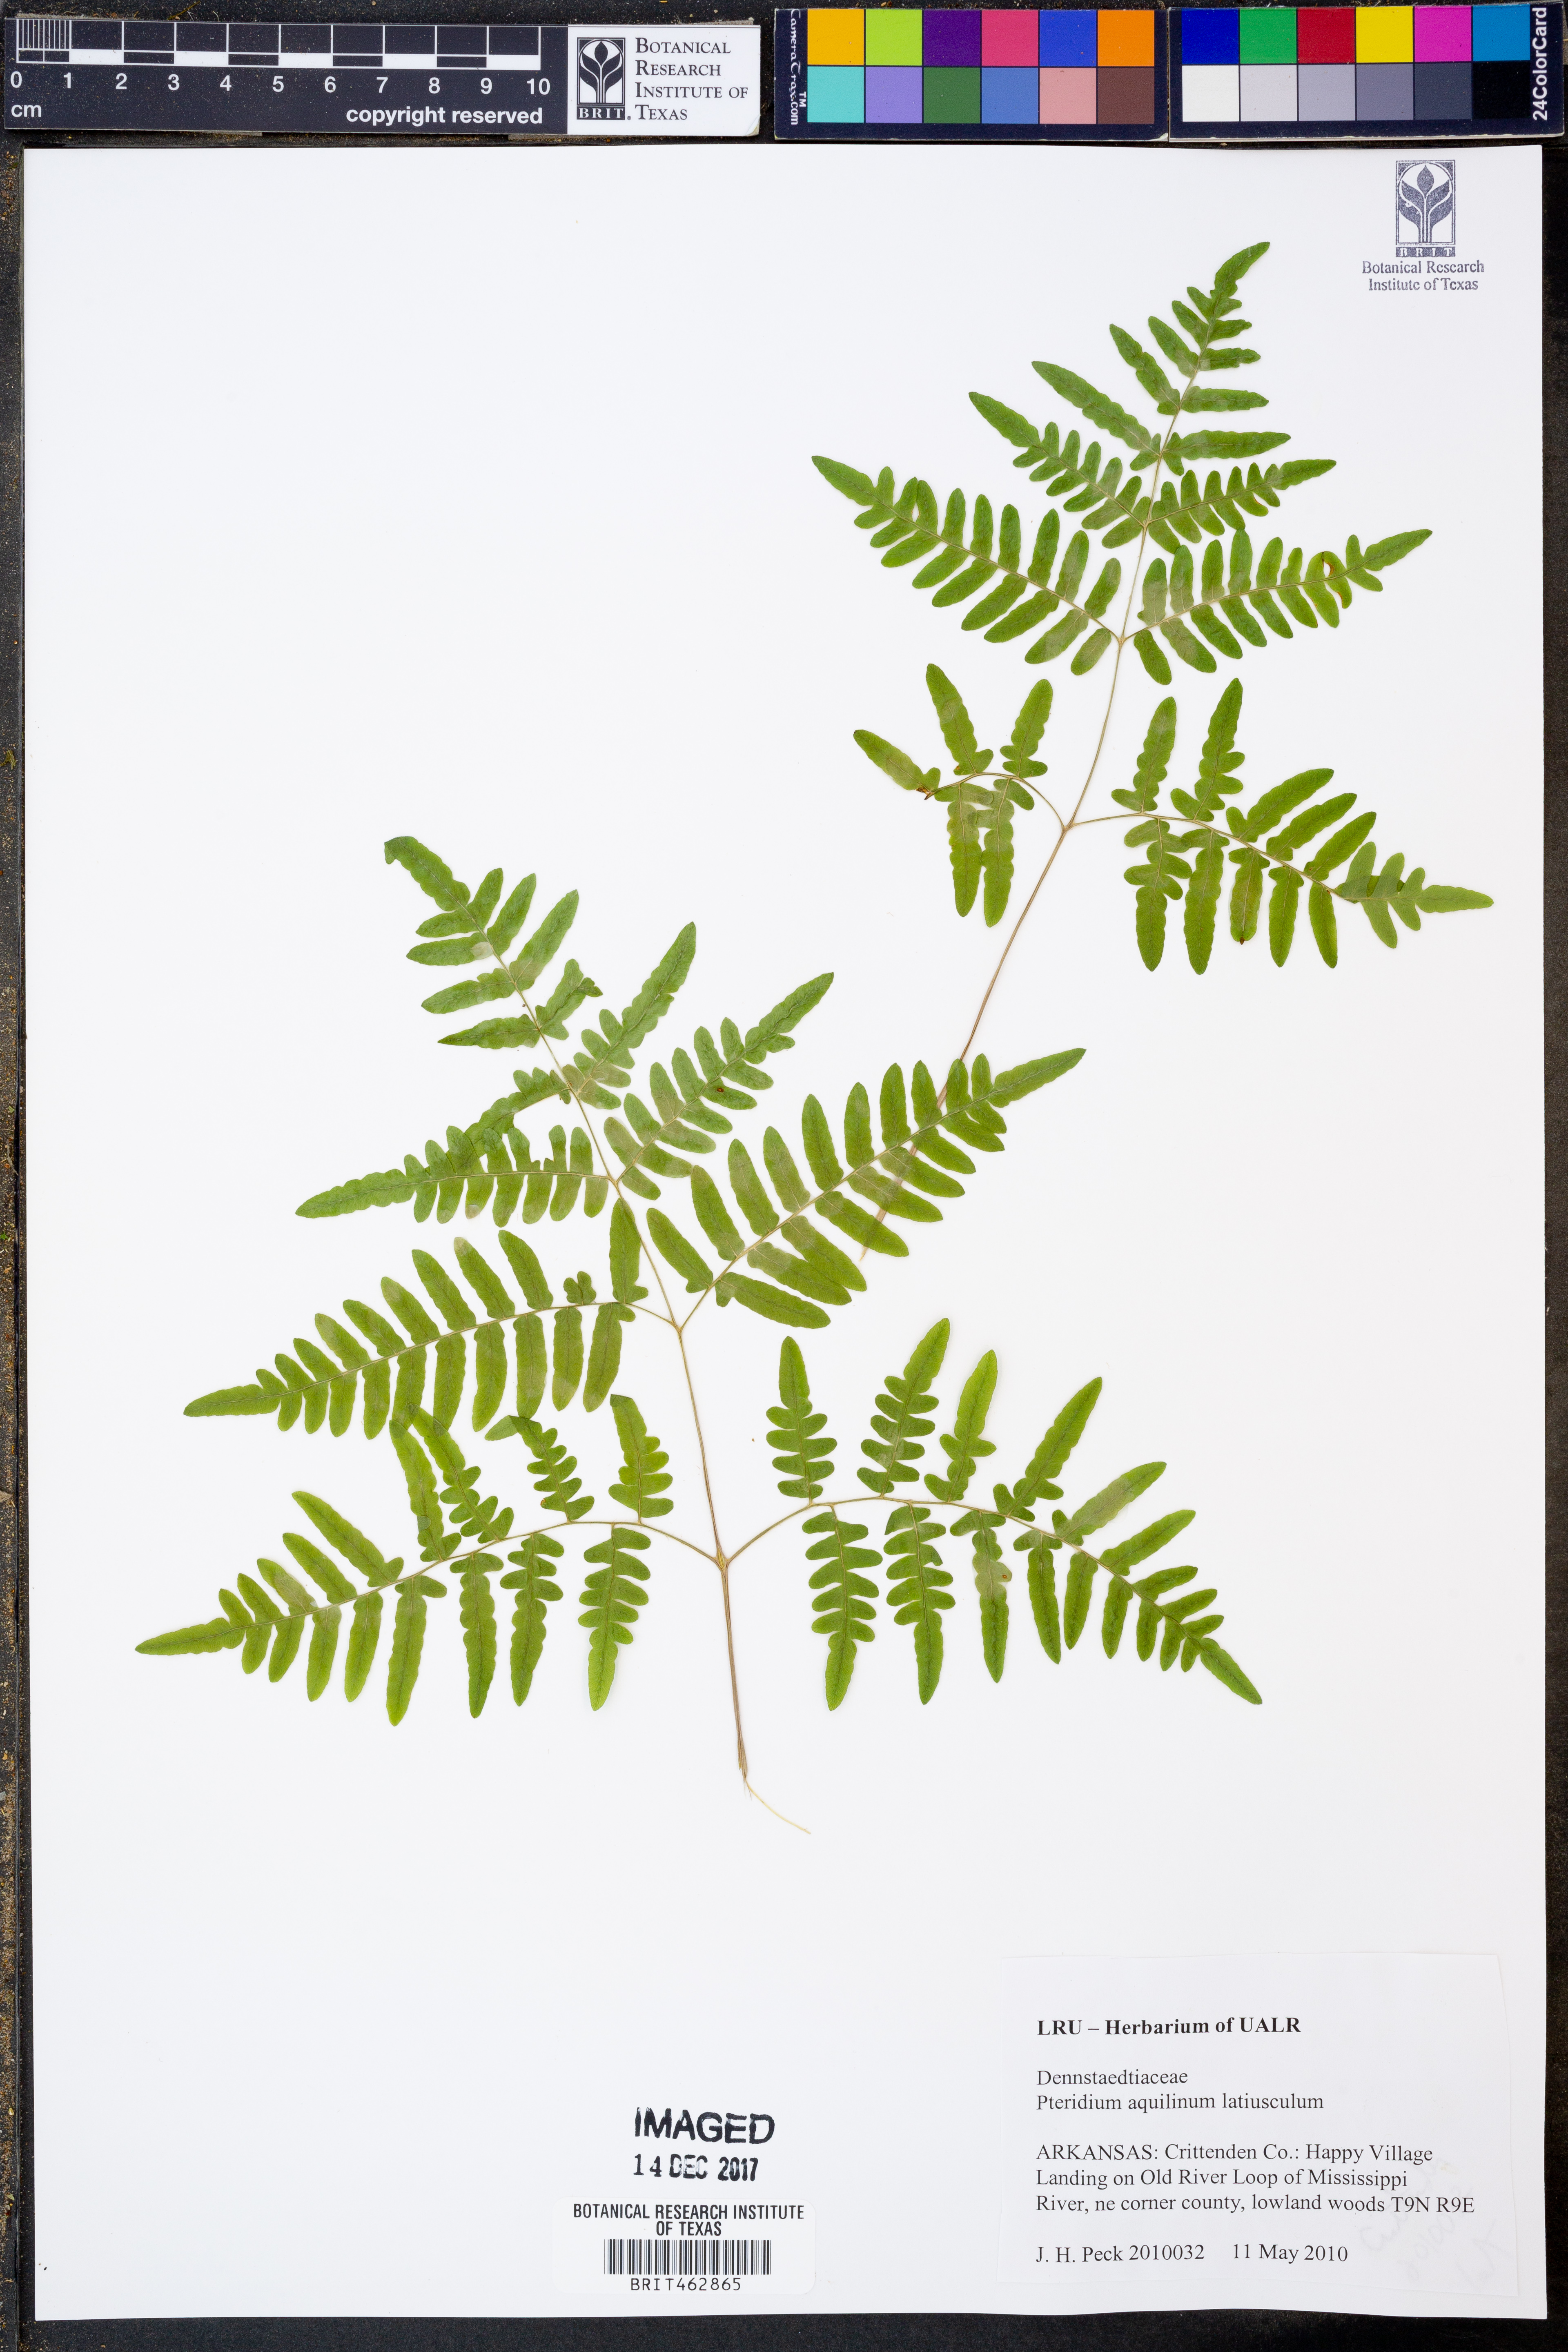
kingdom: Plantae
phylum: Tracheophyta
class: Polypodiopsida
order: Polypodiales
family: Dennstaedtiaceae
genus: Pteridium
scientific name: Pteridium aquilinum
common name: Bracken
